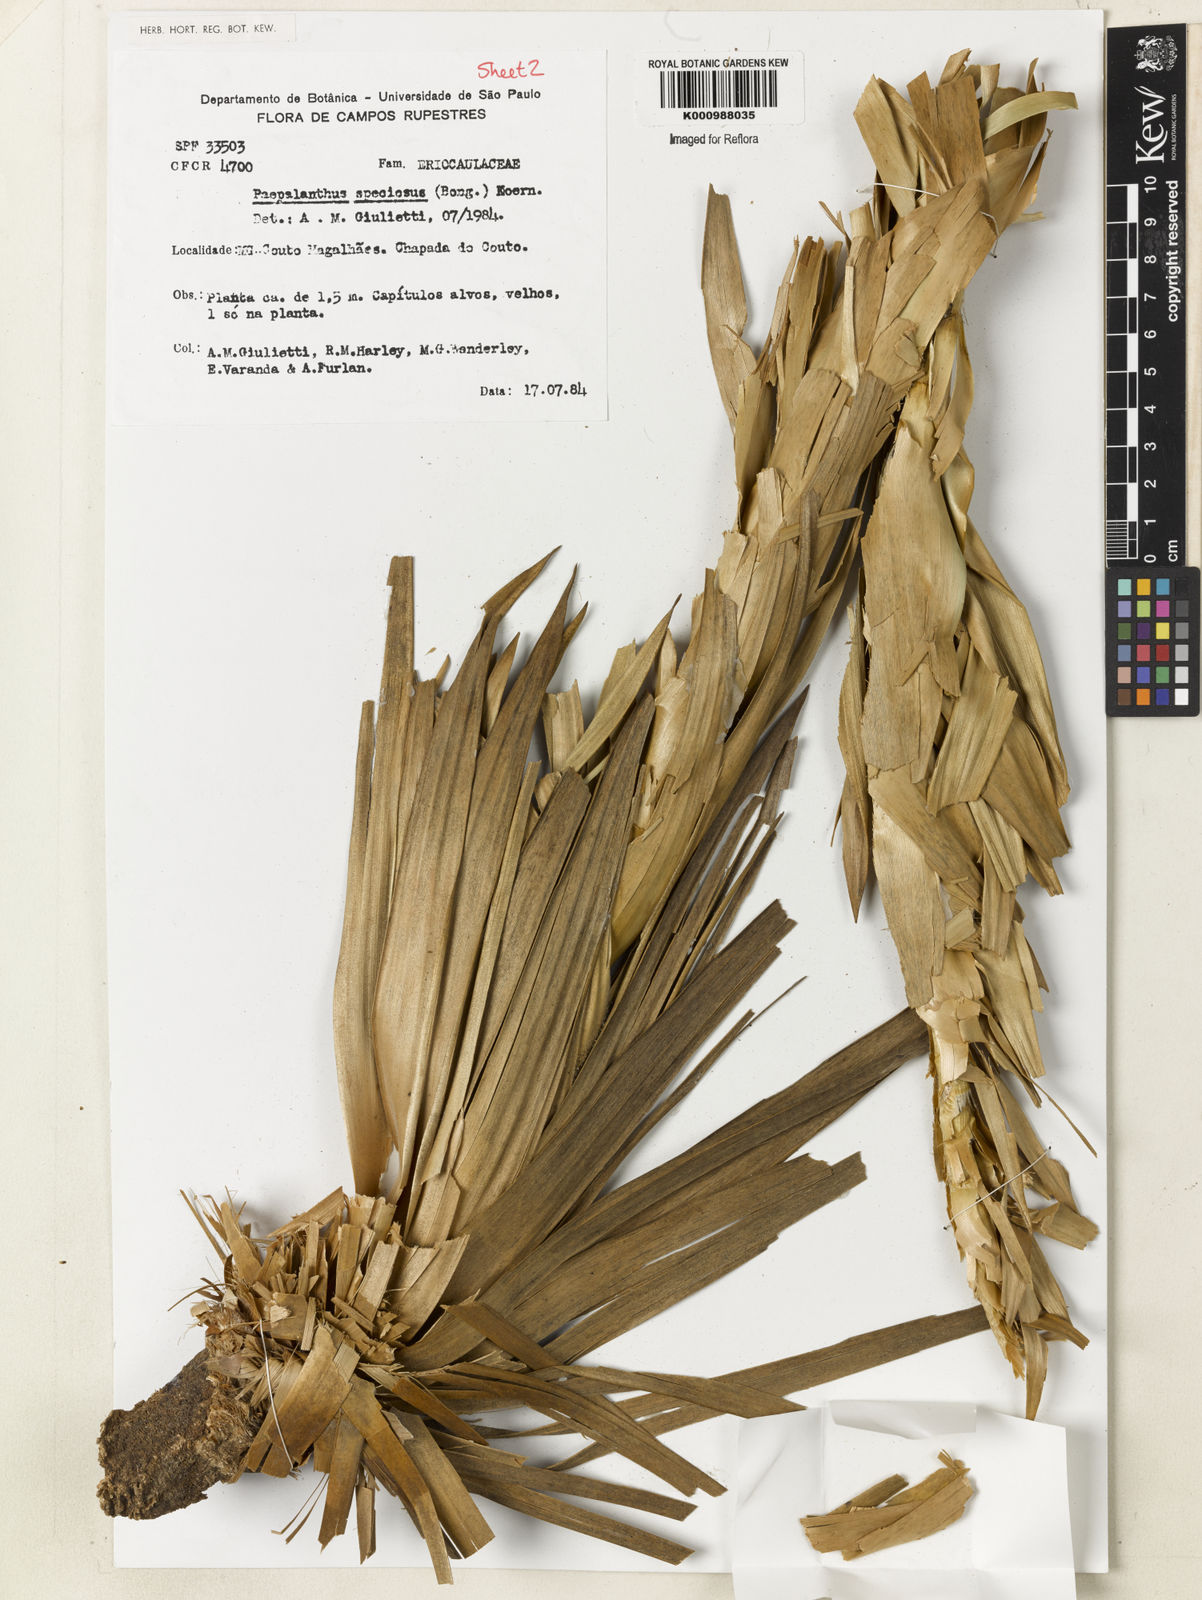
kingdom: Plantae
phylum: Tracheophyta
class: Liliopsida
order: Poales
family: Eriocaulaceae
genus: Paepalanthus
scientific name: Paepalanthus
